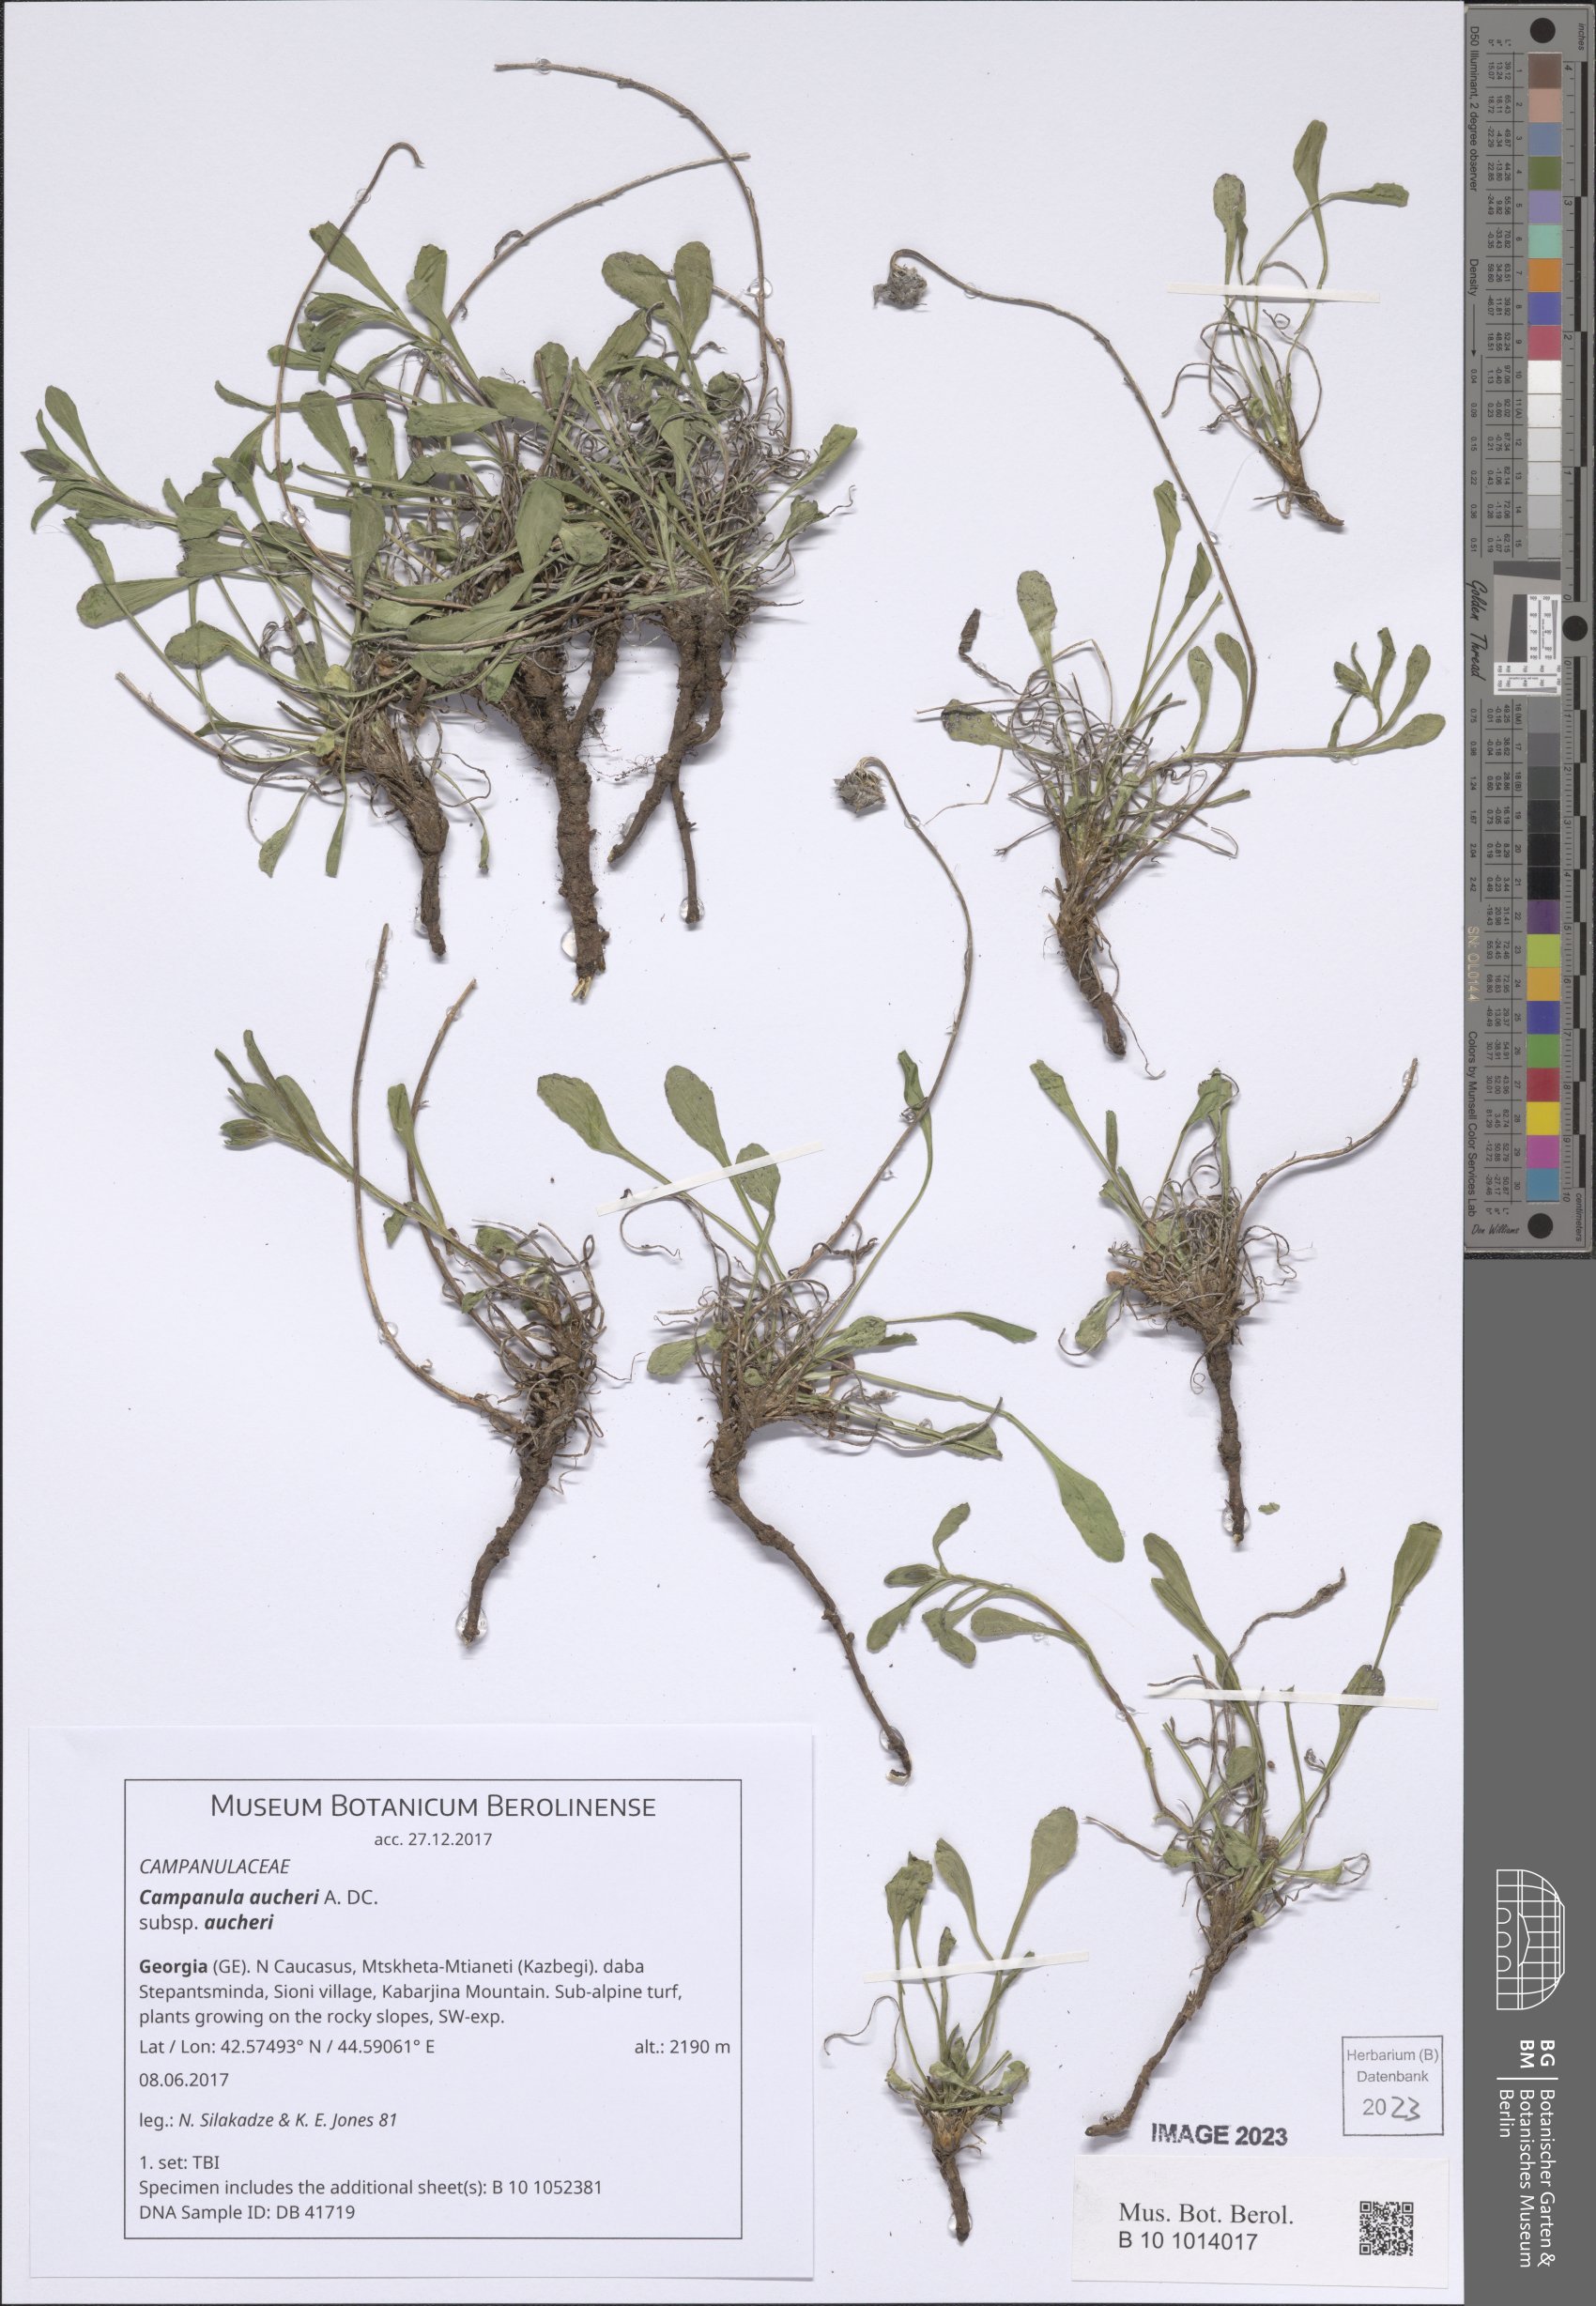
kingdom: Plantae
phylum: Tracheophyta
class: Magnoliopsida
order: Asterales
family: Campanulaceae
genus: Campanula
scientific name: Campanula saxifraga
